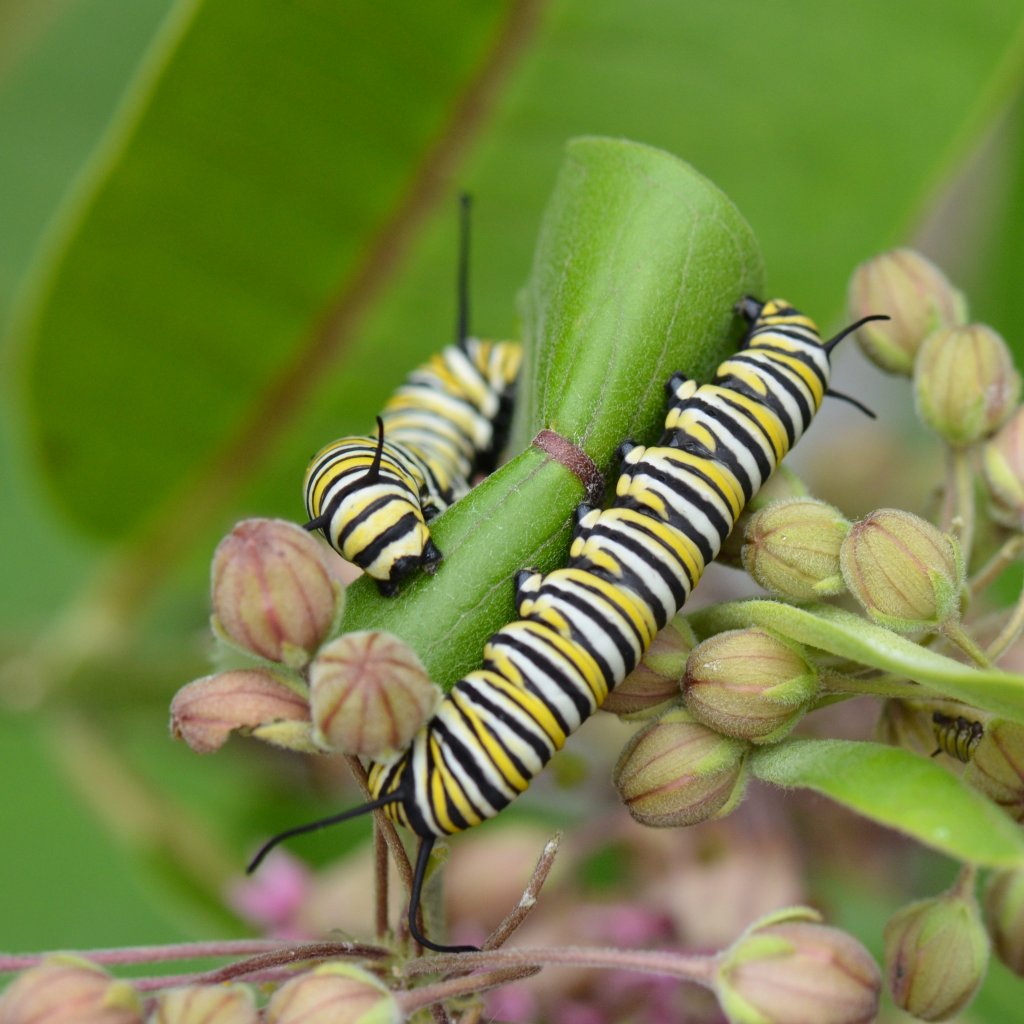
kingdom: Animalia
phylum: Arthropoda
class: Insecta
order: Lepidoptera
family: Nymphalidae
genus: Danaus
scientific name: Danaus plexippus
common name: Monarch
